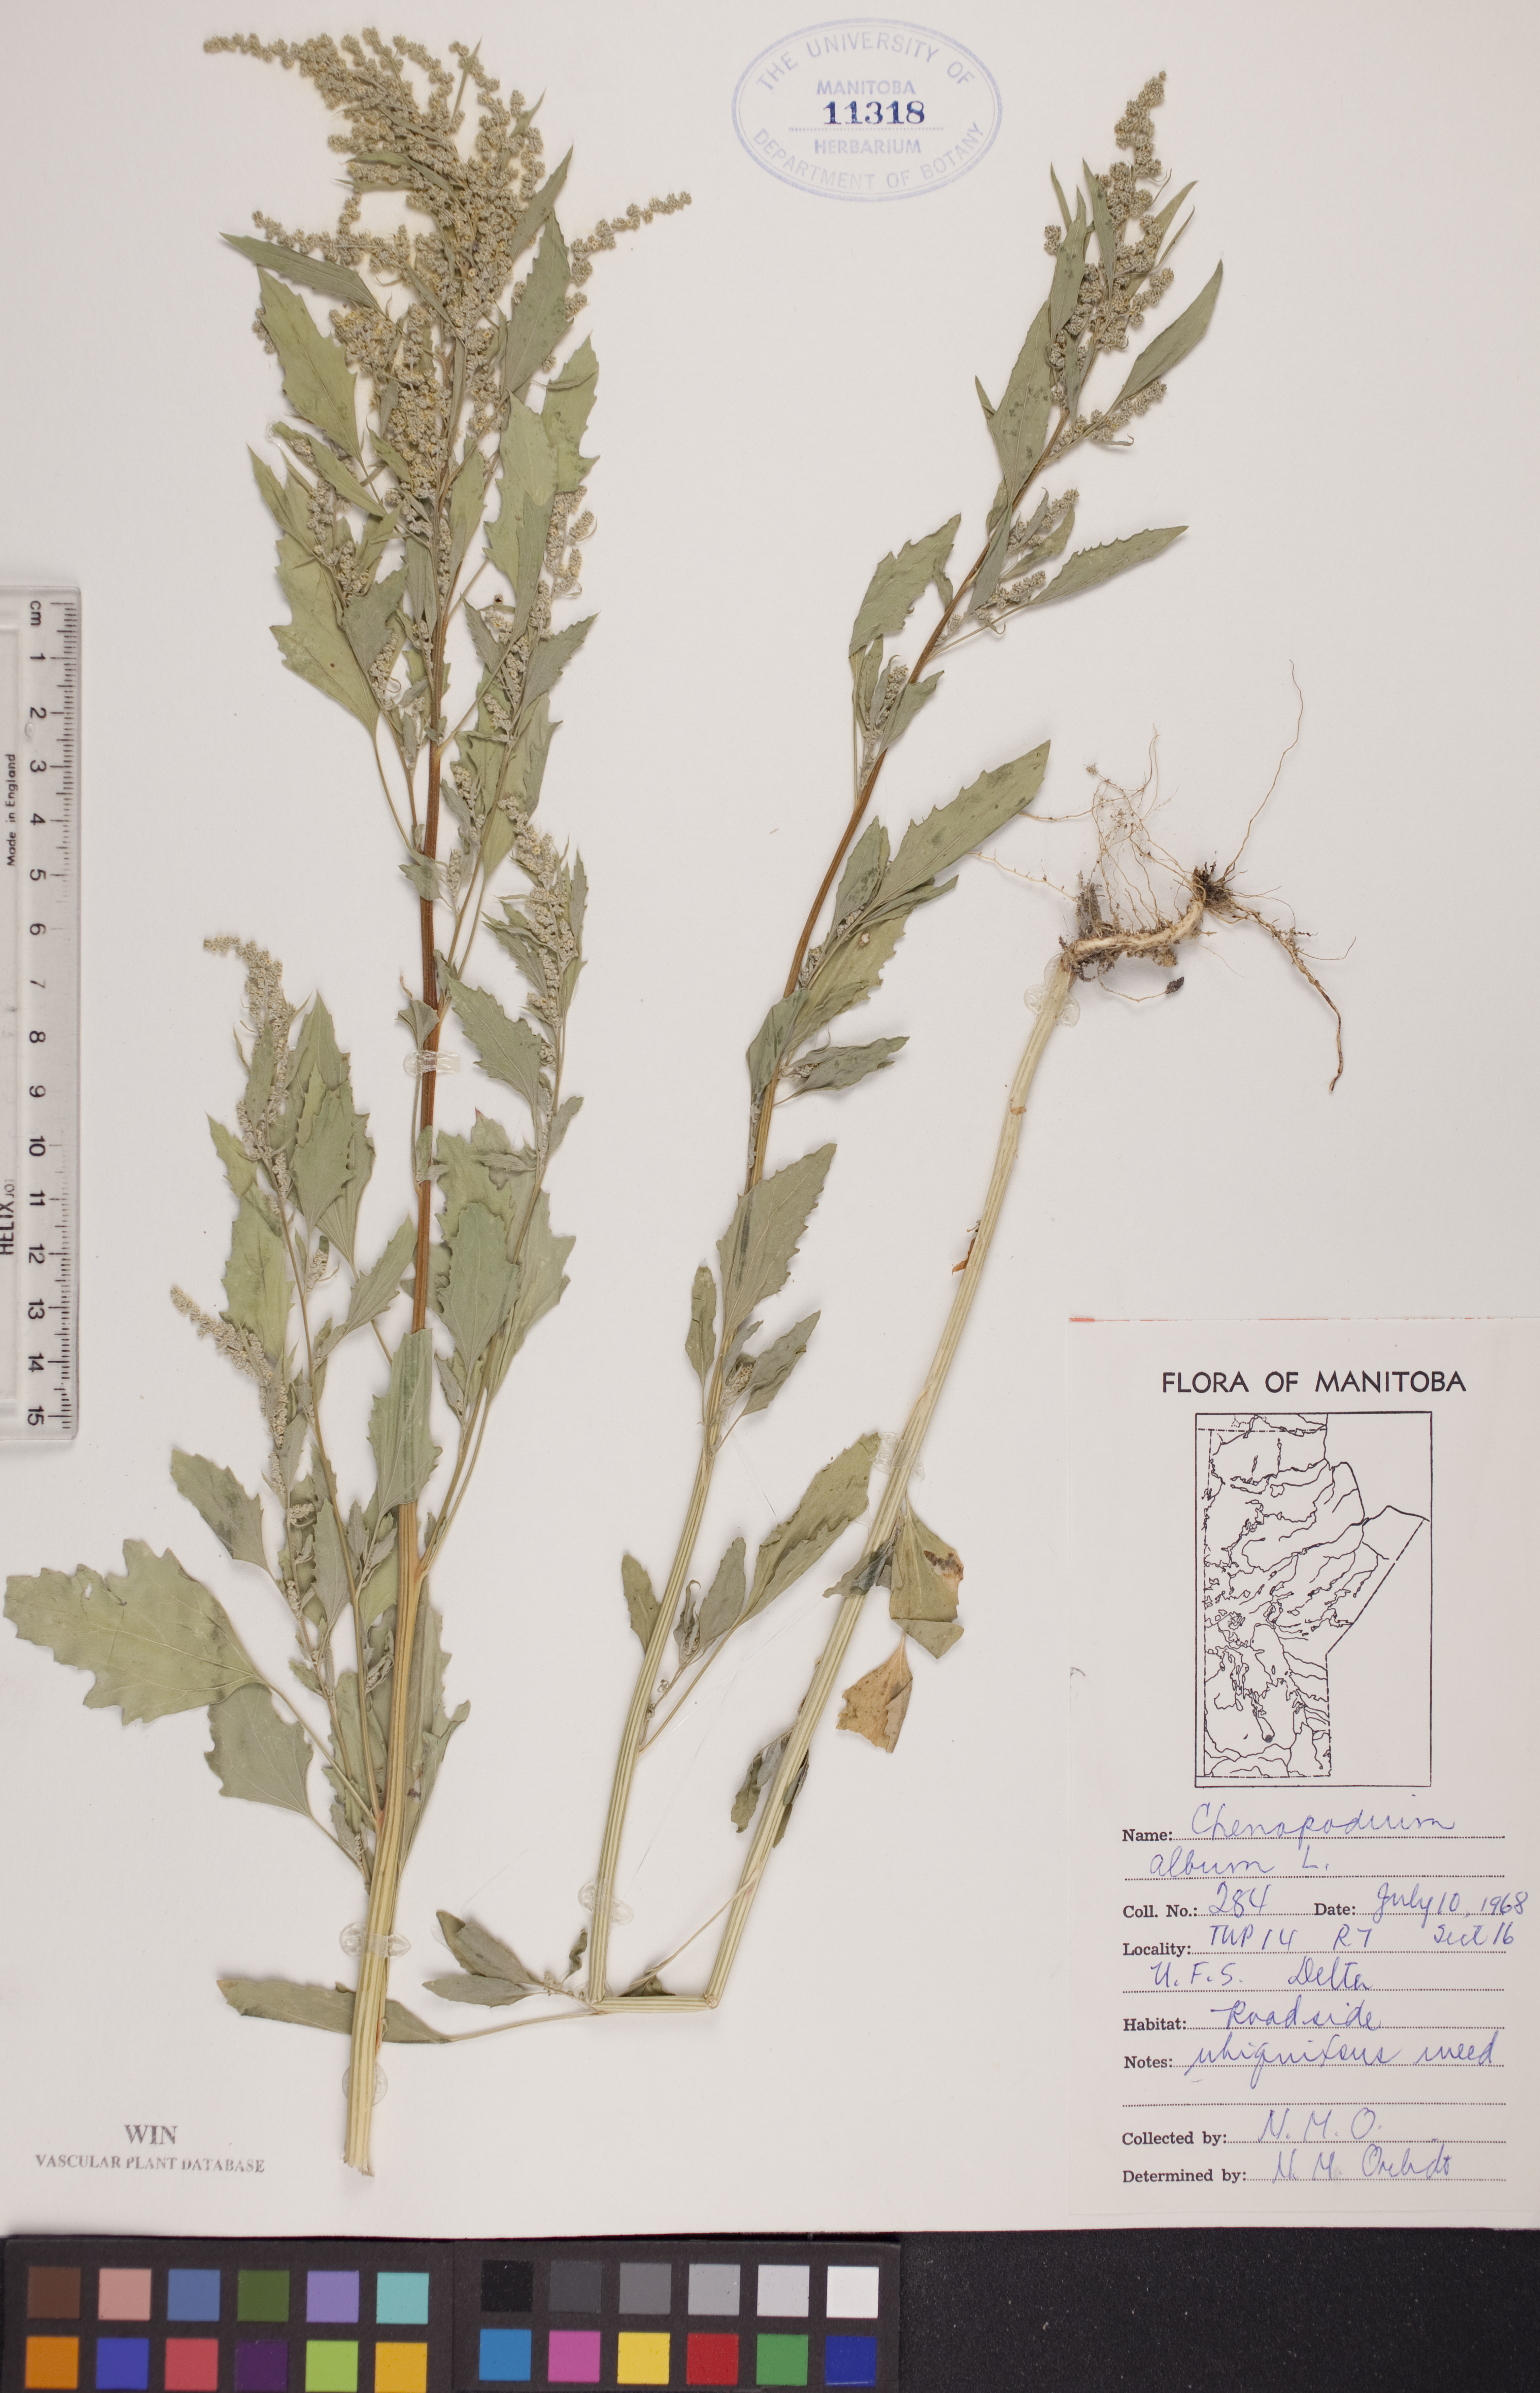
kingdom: Plantae
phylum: Tracheophyta
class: Magnoliopsida
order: Caryophyllales
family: Amaranthaceae
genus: Chenopodium
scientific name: Chenopodium album
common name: Fat-hen
